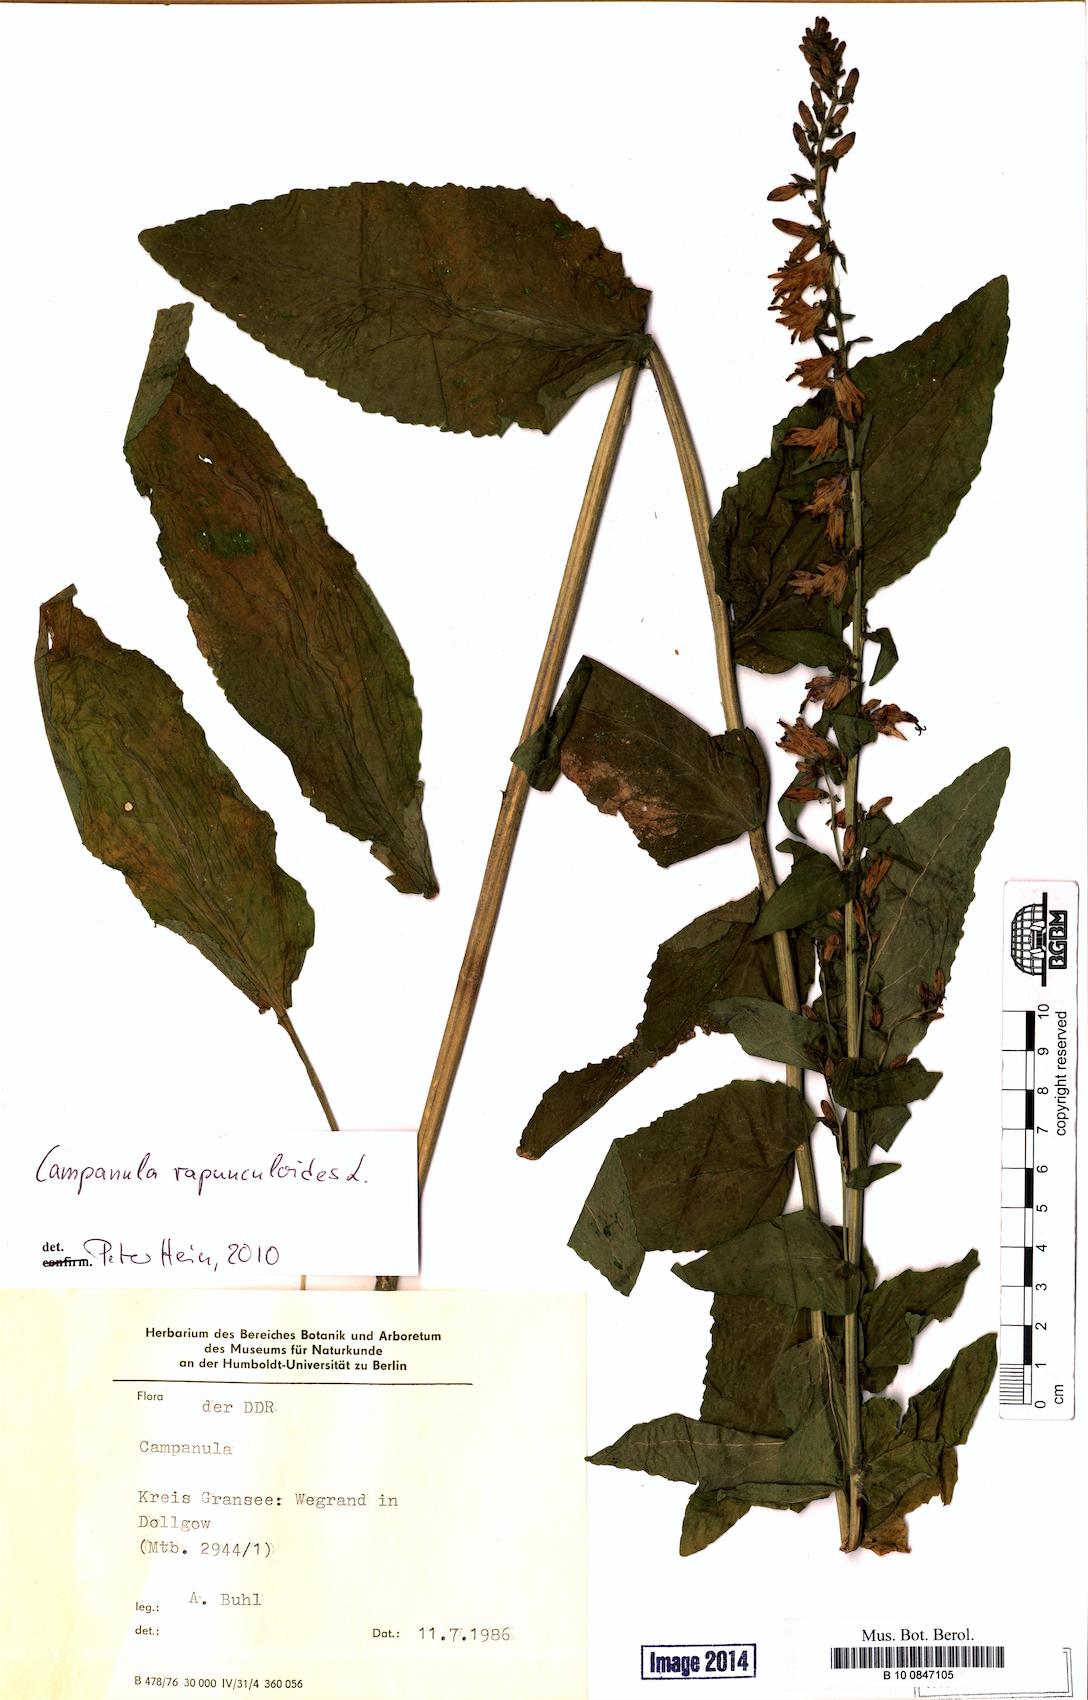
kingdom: Plantae
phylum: Tracheophyta
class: Magnoliopsida
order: Asterales
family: Campanulaceae
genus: Campanula
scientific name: Campanula rapunculoides
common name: Creeping bellflower
